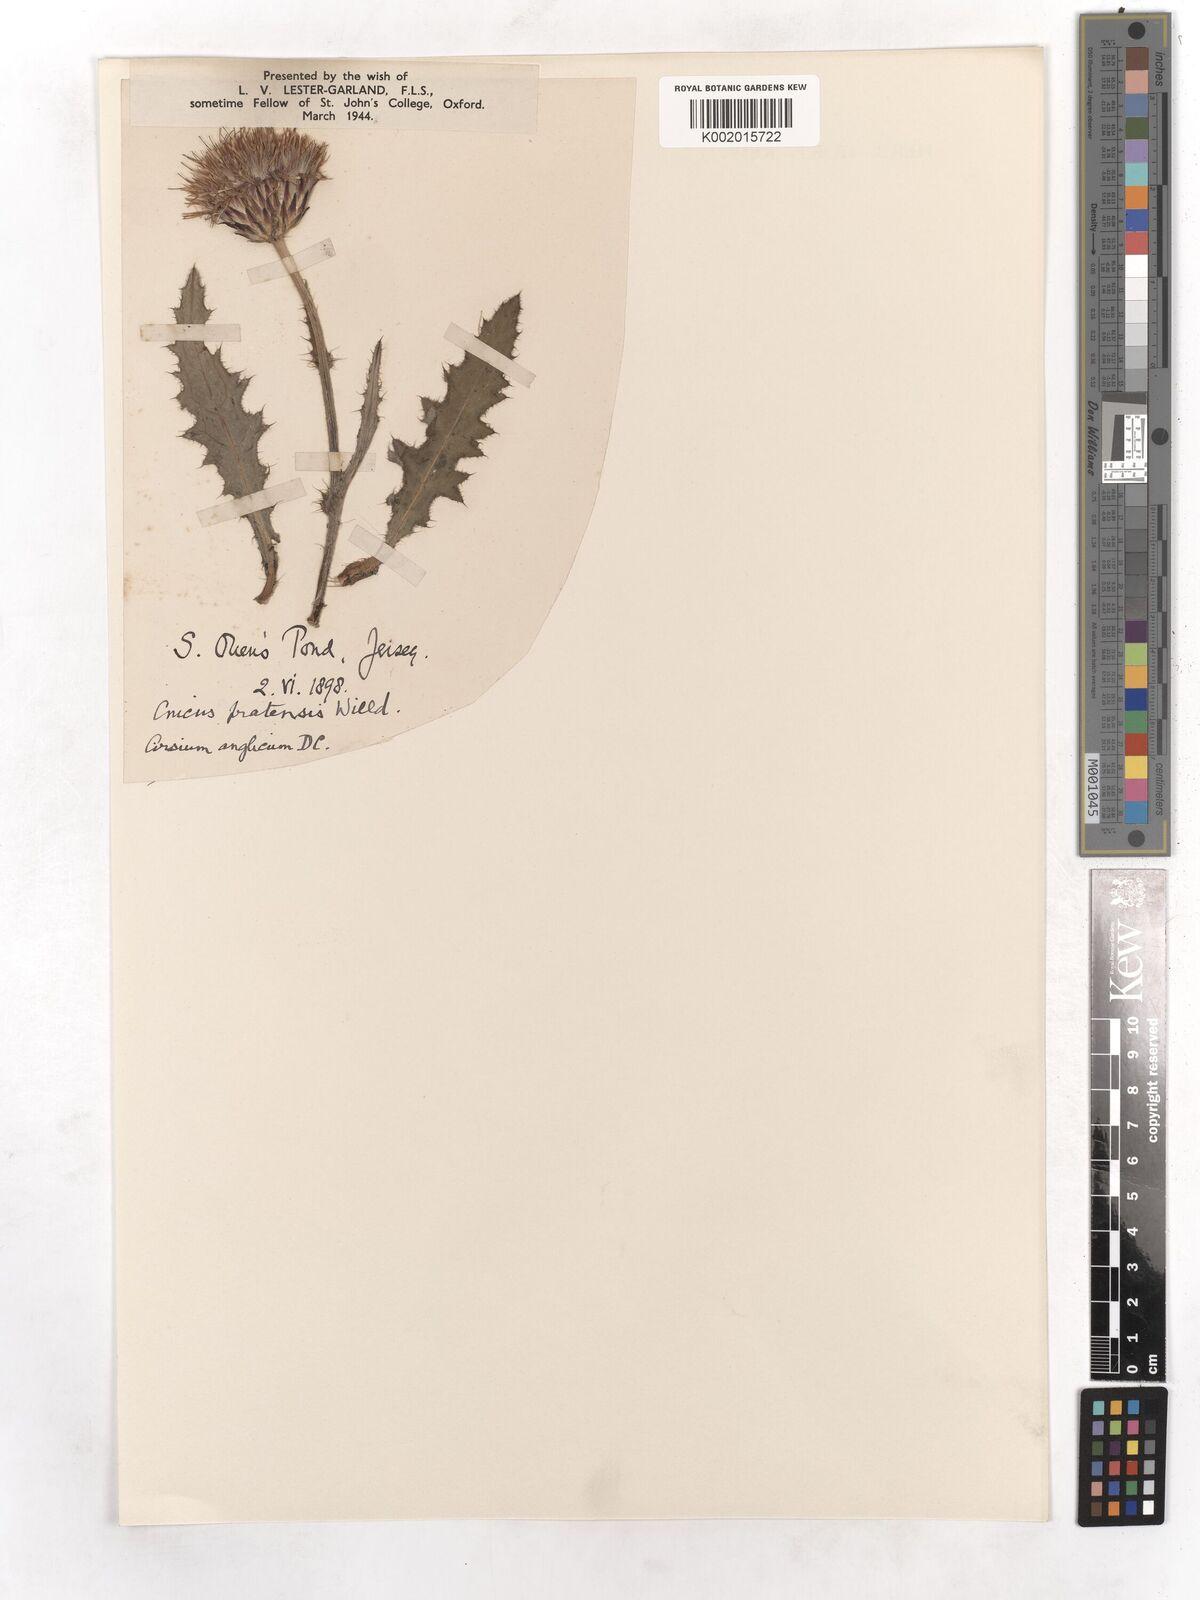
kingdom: Plantae
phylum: Tracheophyta
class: Magnoliopsida
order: Asterales
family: Asteraceae
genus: Cirsium
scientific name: Cirsium dissectum
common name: Meadow thistle
